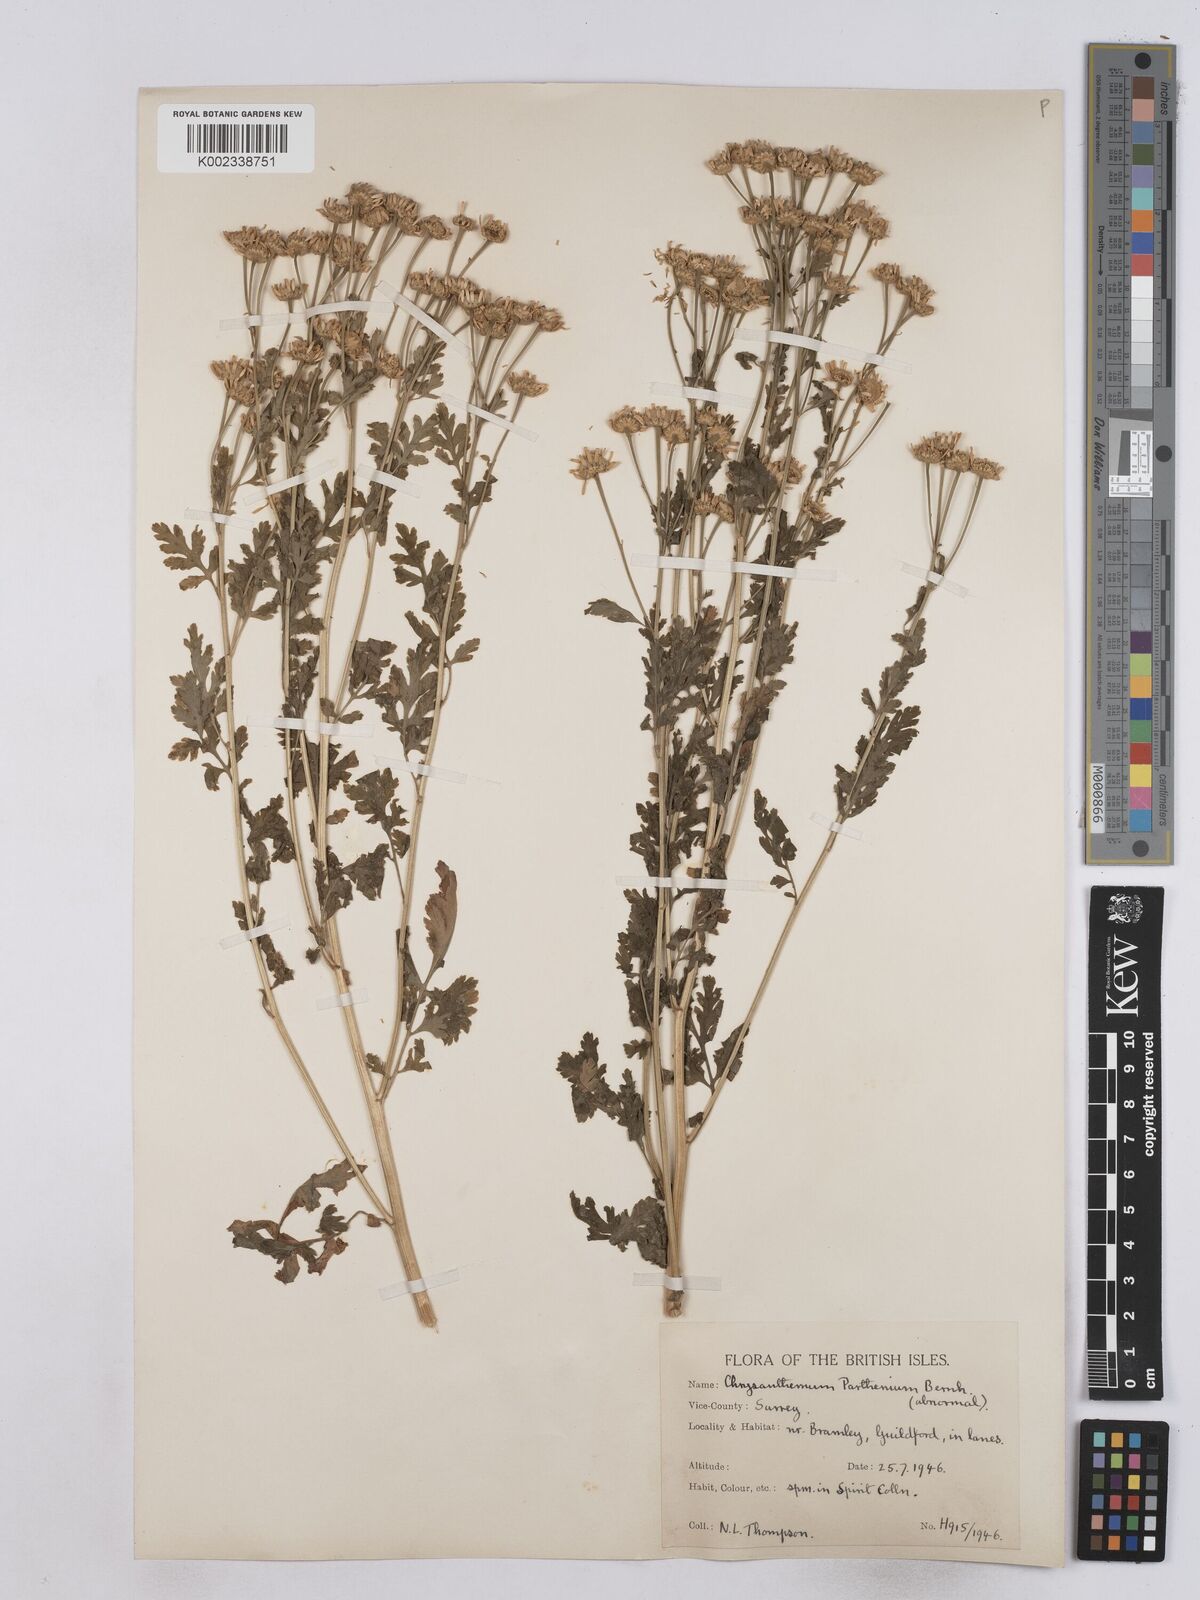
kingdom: Plantae
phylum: Tracheophyta
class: Magnoliopsida
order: Asterales
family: Asteraceae
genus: Tanacetum
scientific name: Tanacetum parthenium
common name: Feverfew
